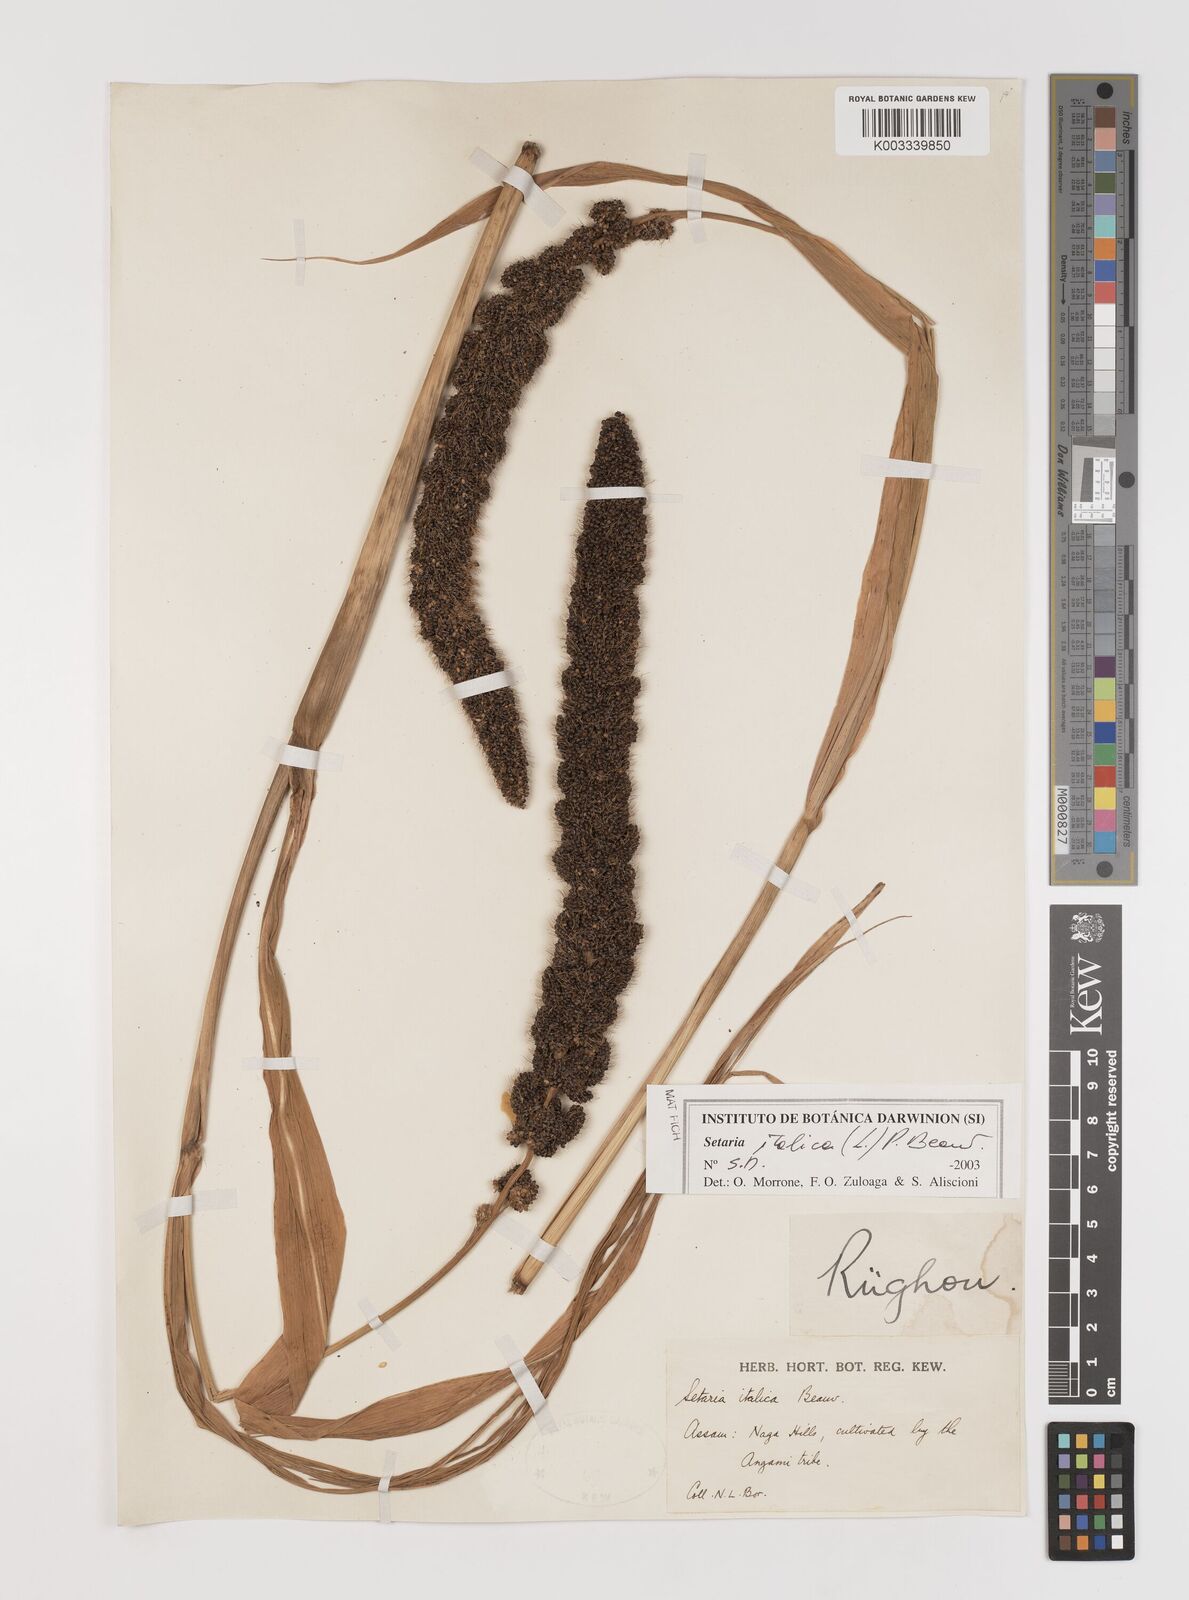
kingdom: Plantae
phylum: Tracheophyta
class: Liliopsida
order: Poales
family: Poaceae
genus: Setaria
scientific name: Setaria italica
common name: Foxtail bristle-grass
